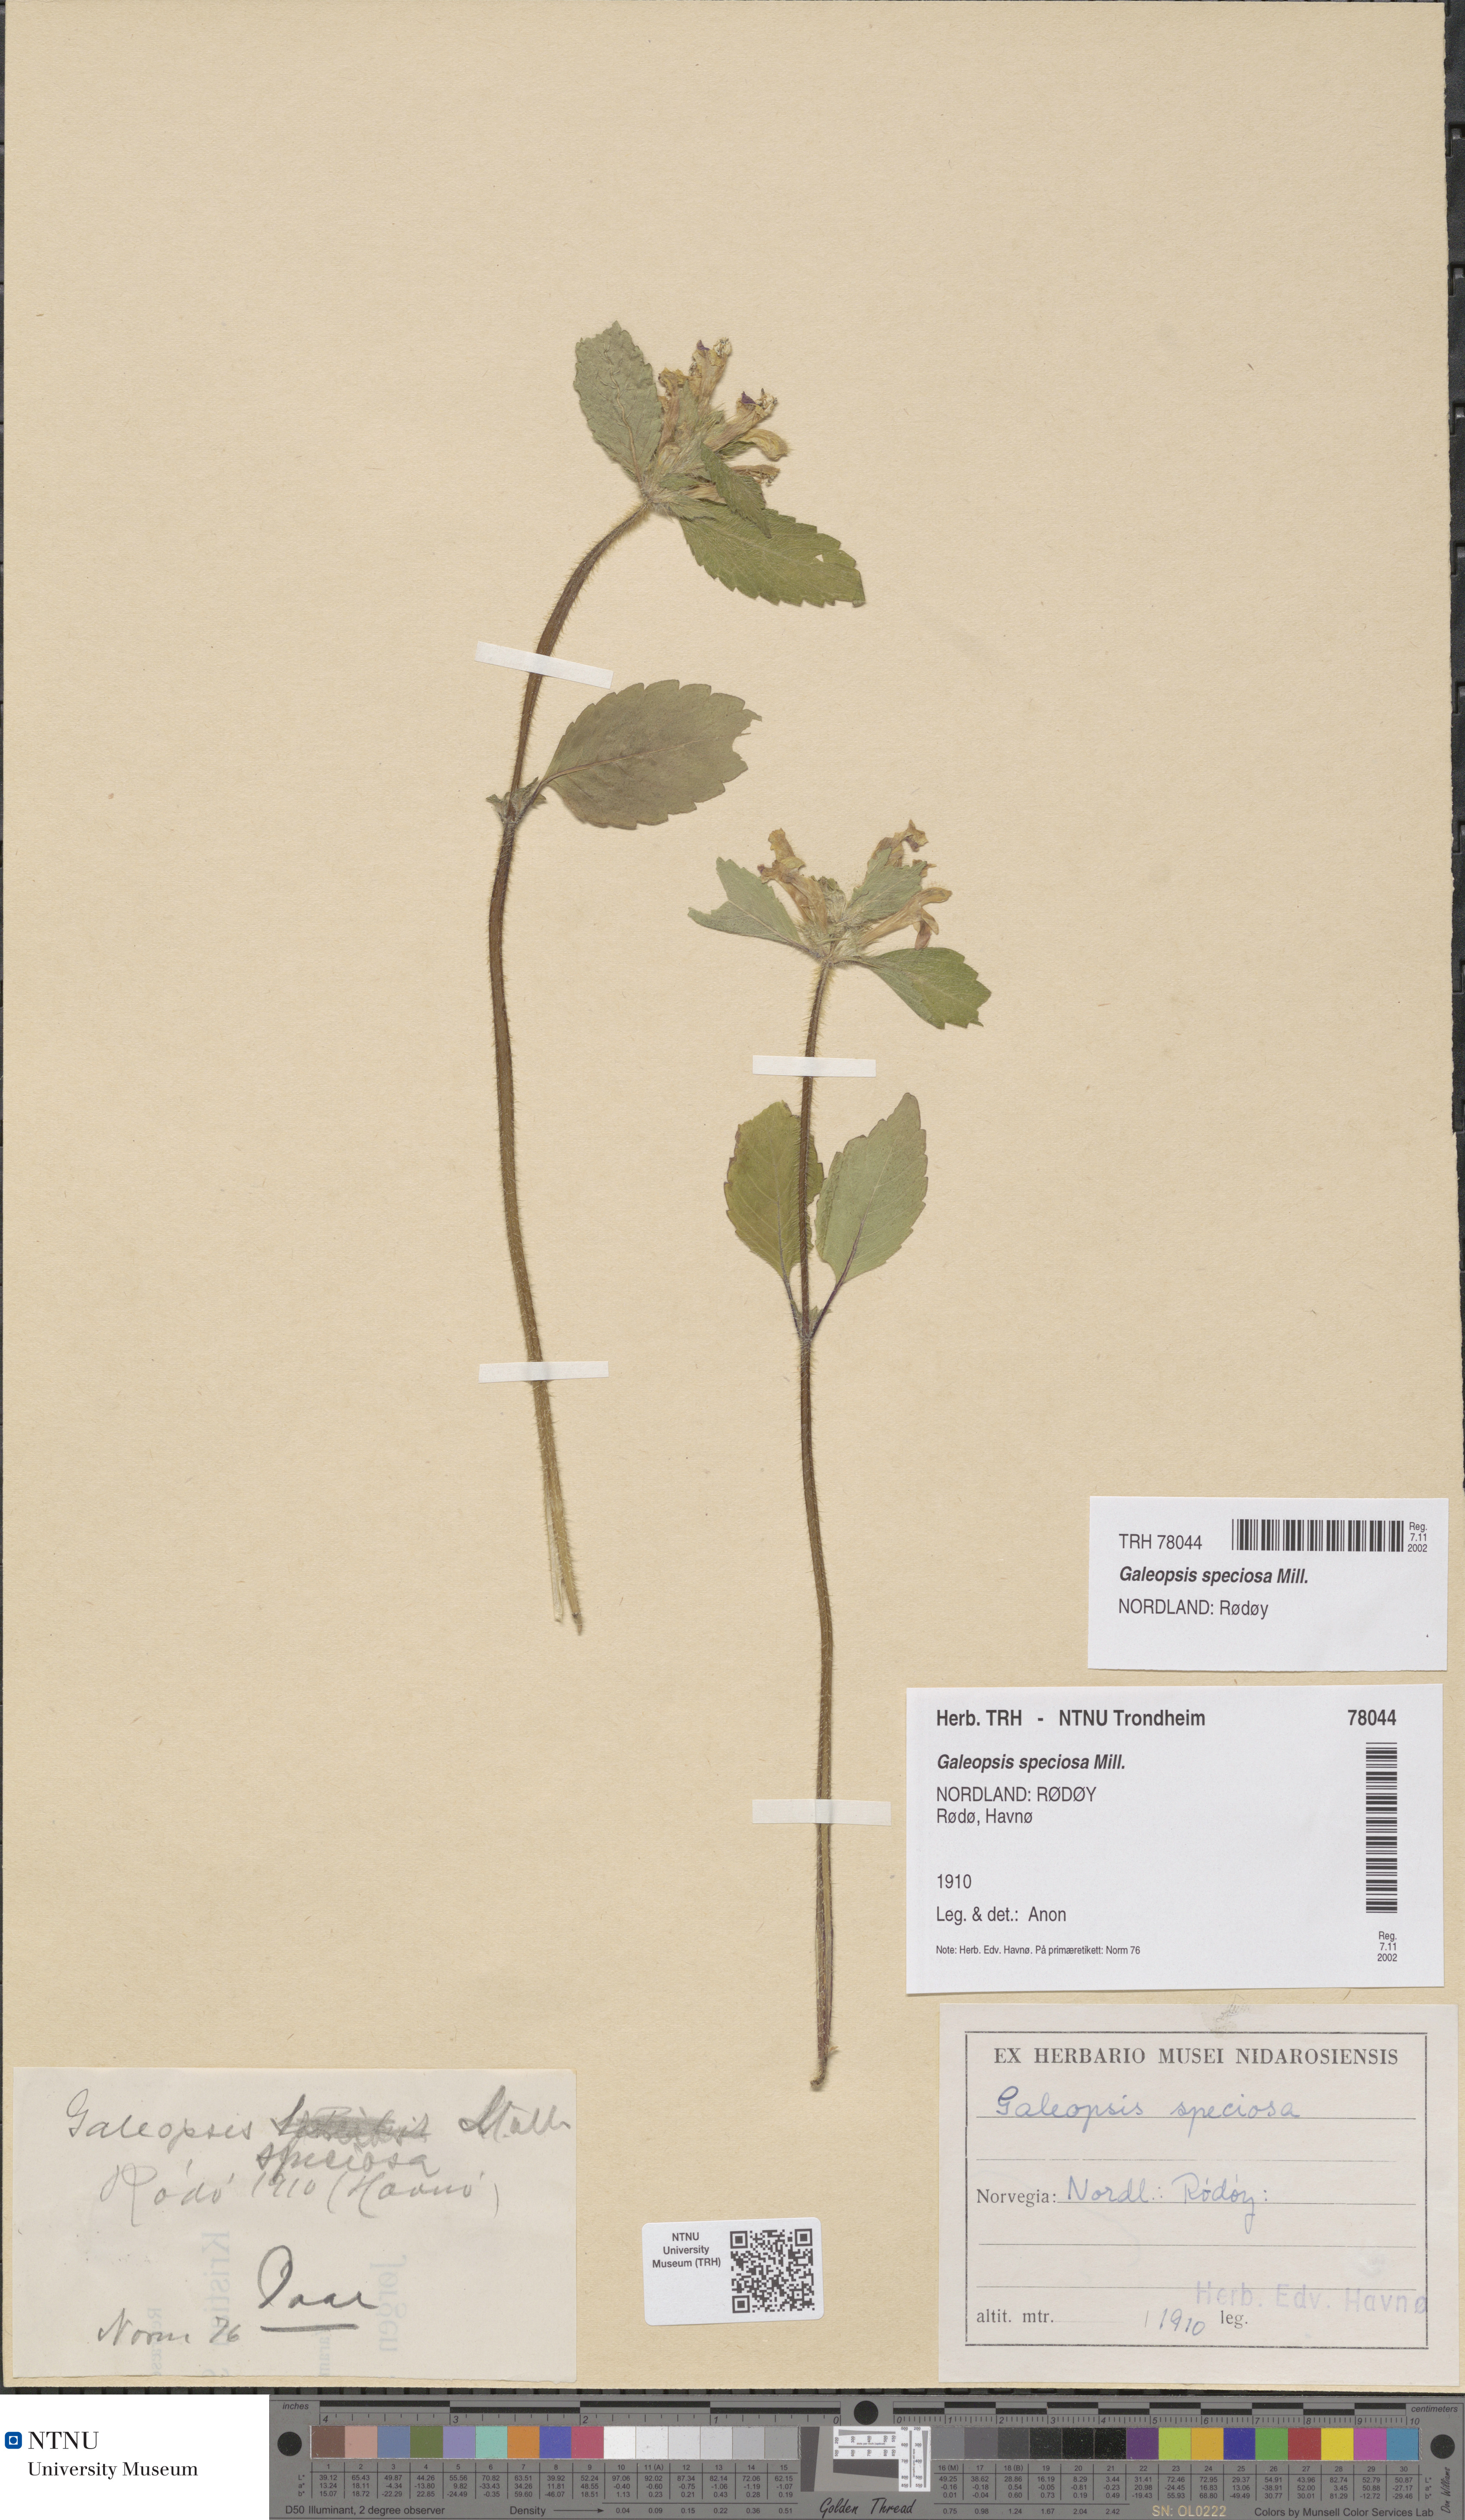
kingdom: Plantae
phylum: Tracheophyta
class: Magnoliopsida
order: Lamiales
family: Lamiaceae
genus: Galeopsis
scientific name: Galeopsis speciosa
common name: Large-flowered hemp-nettle
